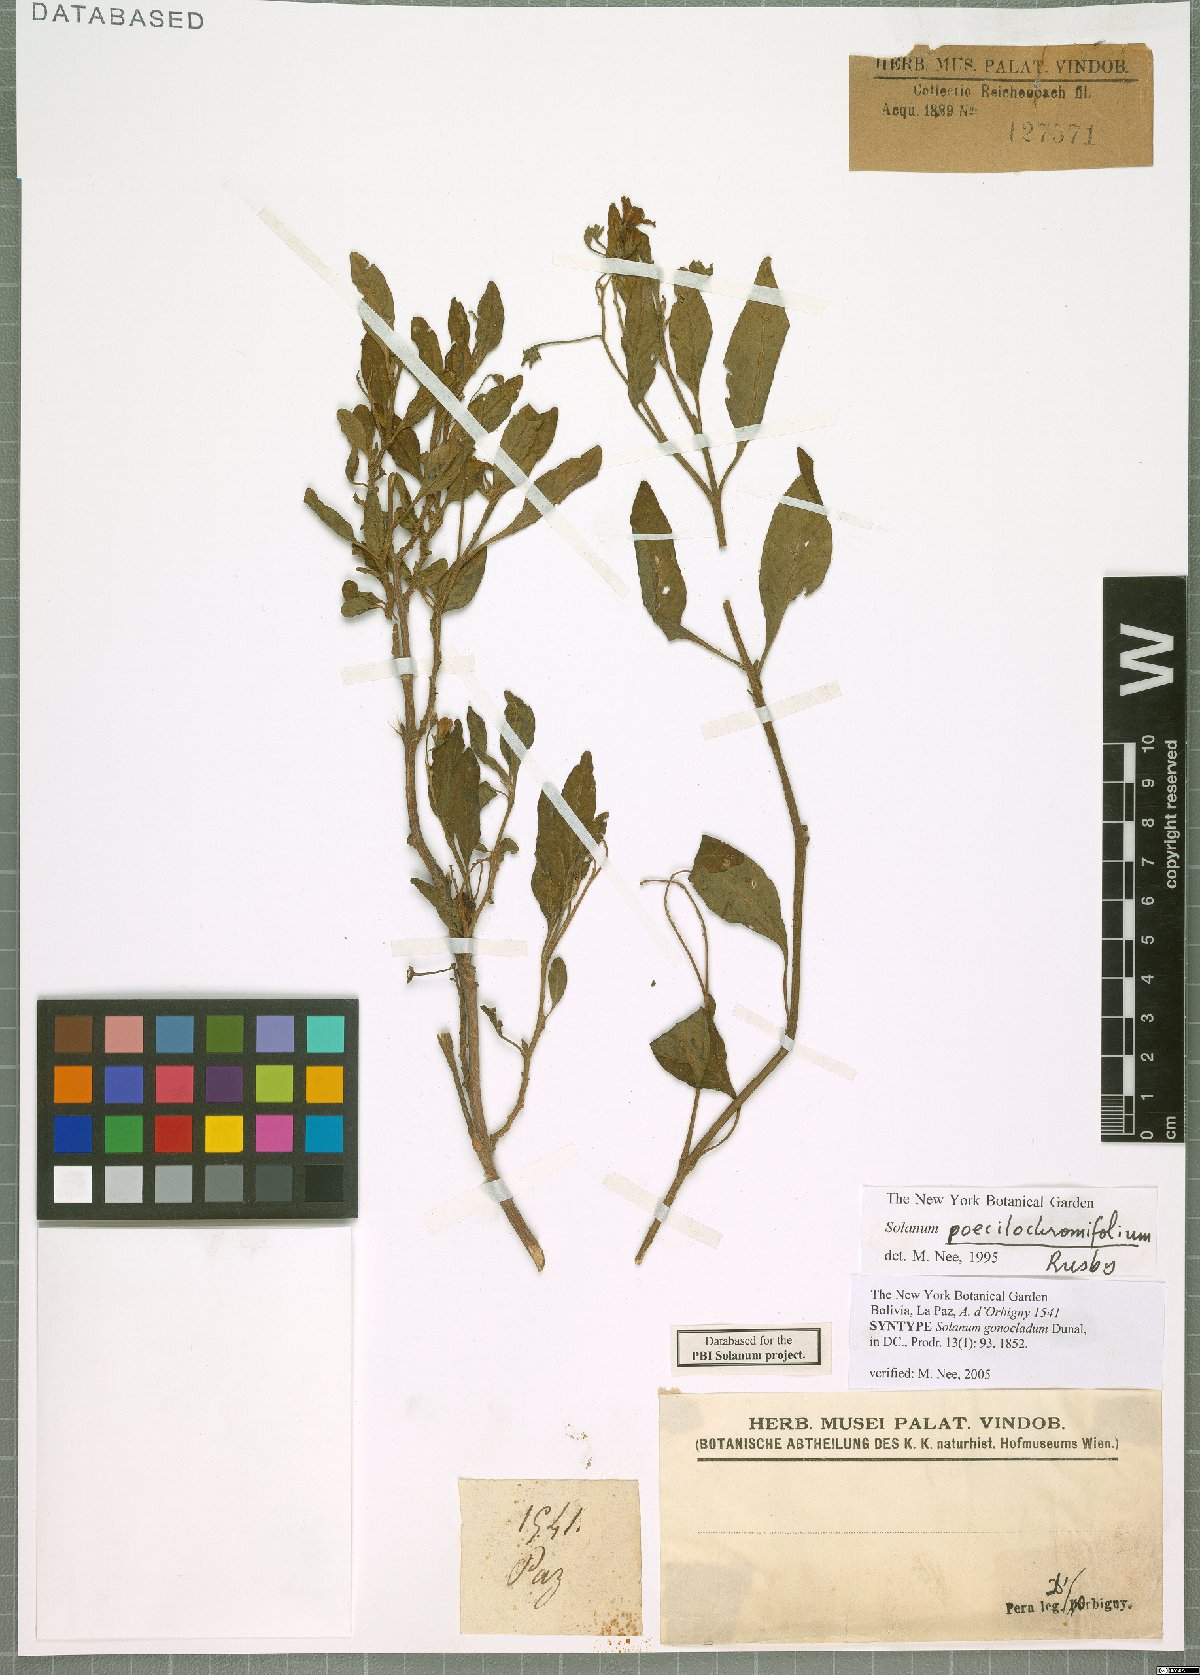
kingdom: Plantae
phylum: Tracheophyta
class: Magnoliopsida
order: Solanales
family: Solanaceae
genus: Solanum
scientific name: Solanum gonocladum
